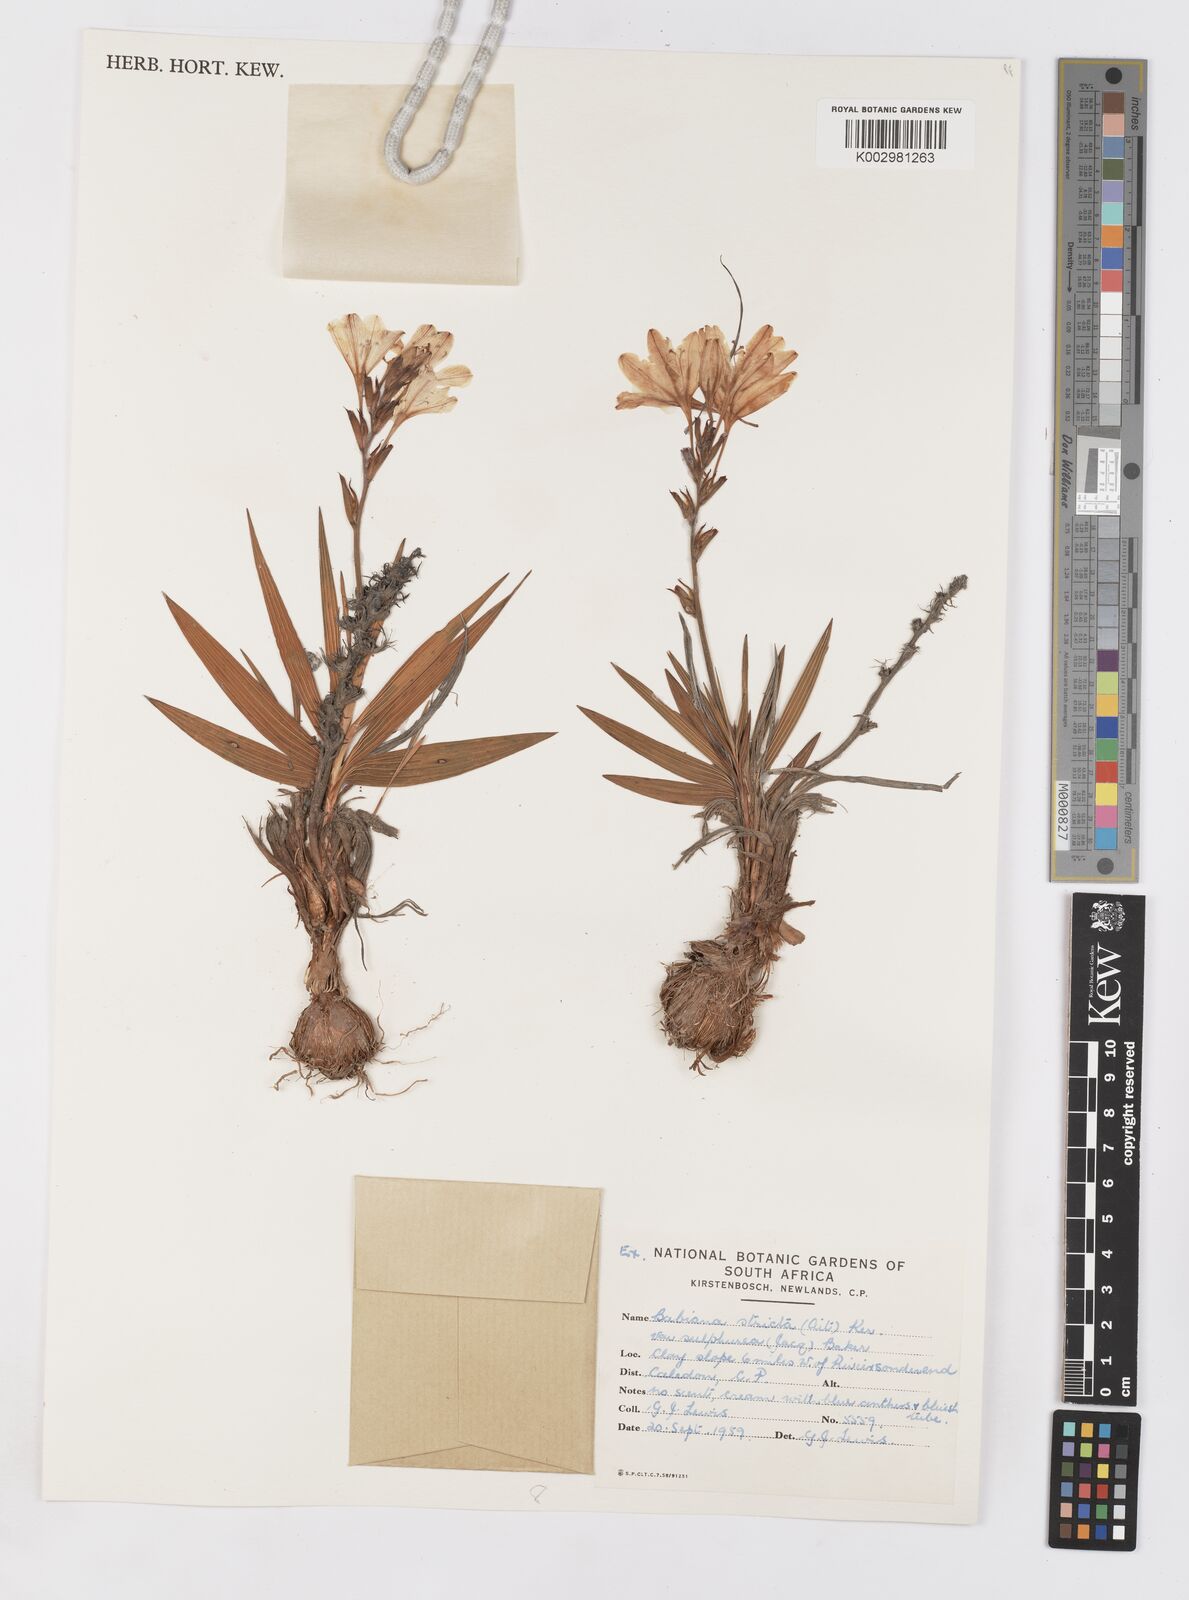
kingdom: Plantae
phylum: Tracheophyta
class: Liliopsida
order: Asparagales
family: Iridaceae
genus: Babiana
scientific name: Babiana regia
